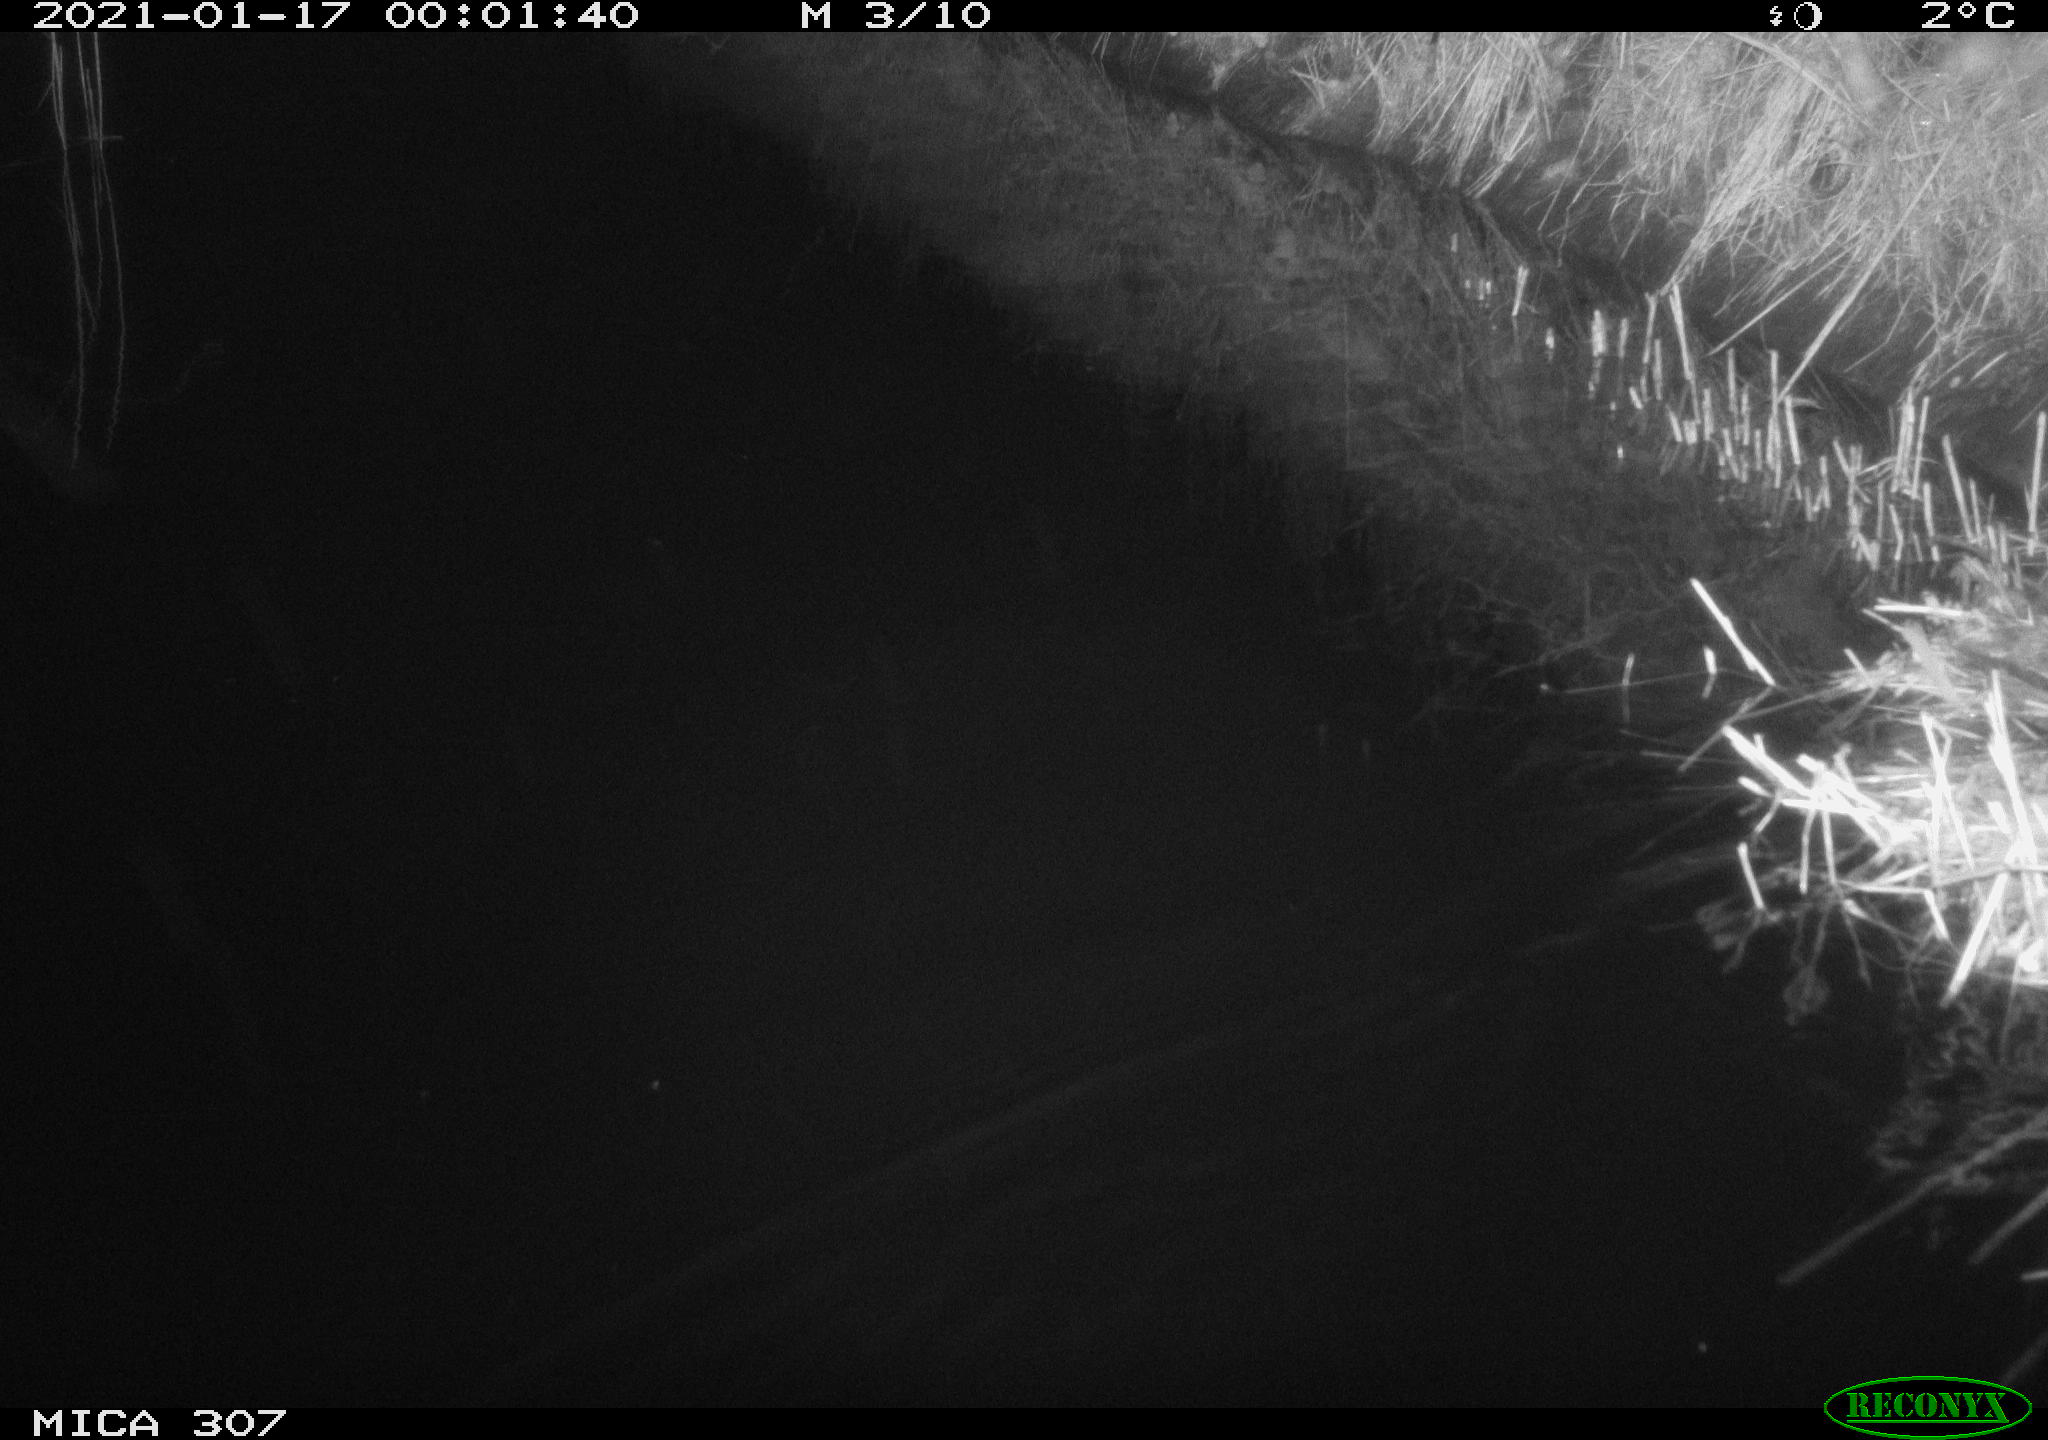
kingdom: Animalia
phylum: Chordata
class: Mammalia
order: Rodentia
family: Muridae
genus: Rattus
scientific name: Rattus norvegicus
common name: Brown rat
